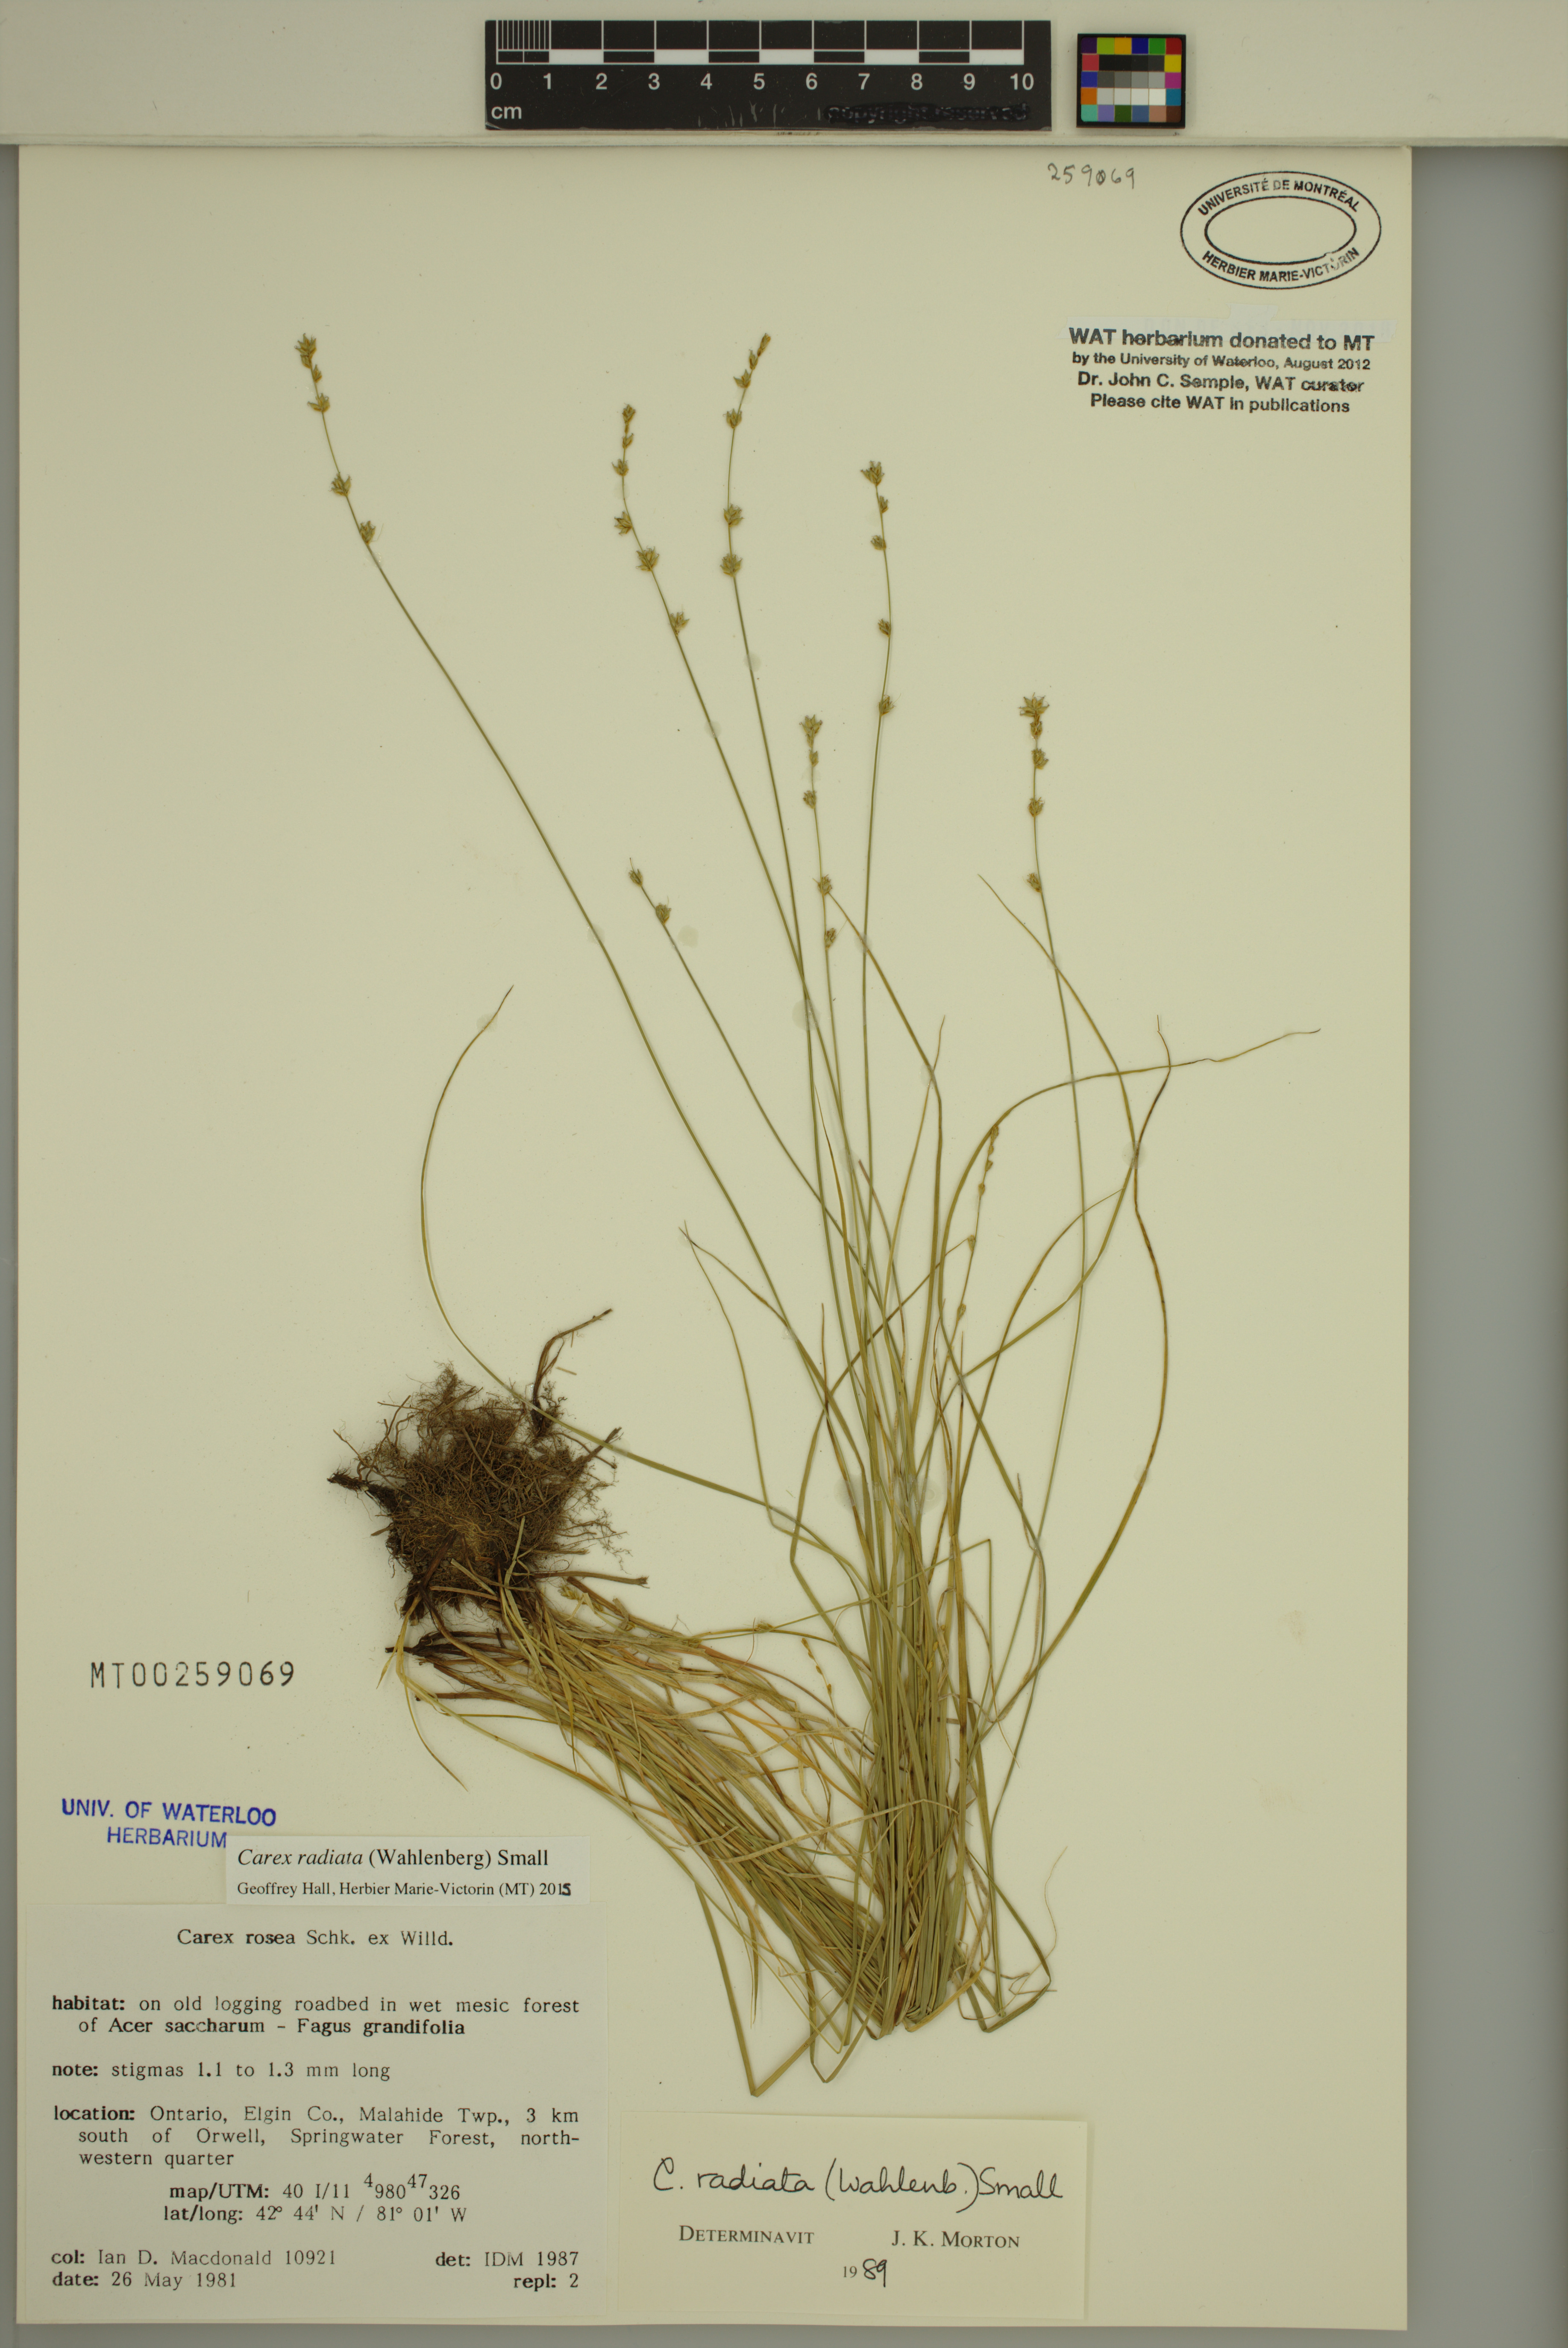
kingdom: Plantae
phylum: Tracheophyta
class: Liliopsida
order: Poales
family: Cyperaceae
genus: Carex
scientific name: Carex radiata
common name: Eastern star sedge
